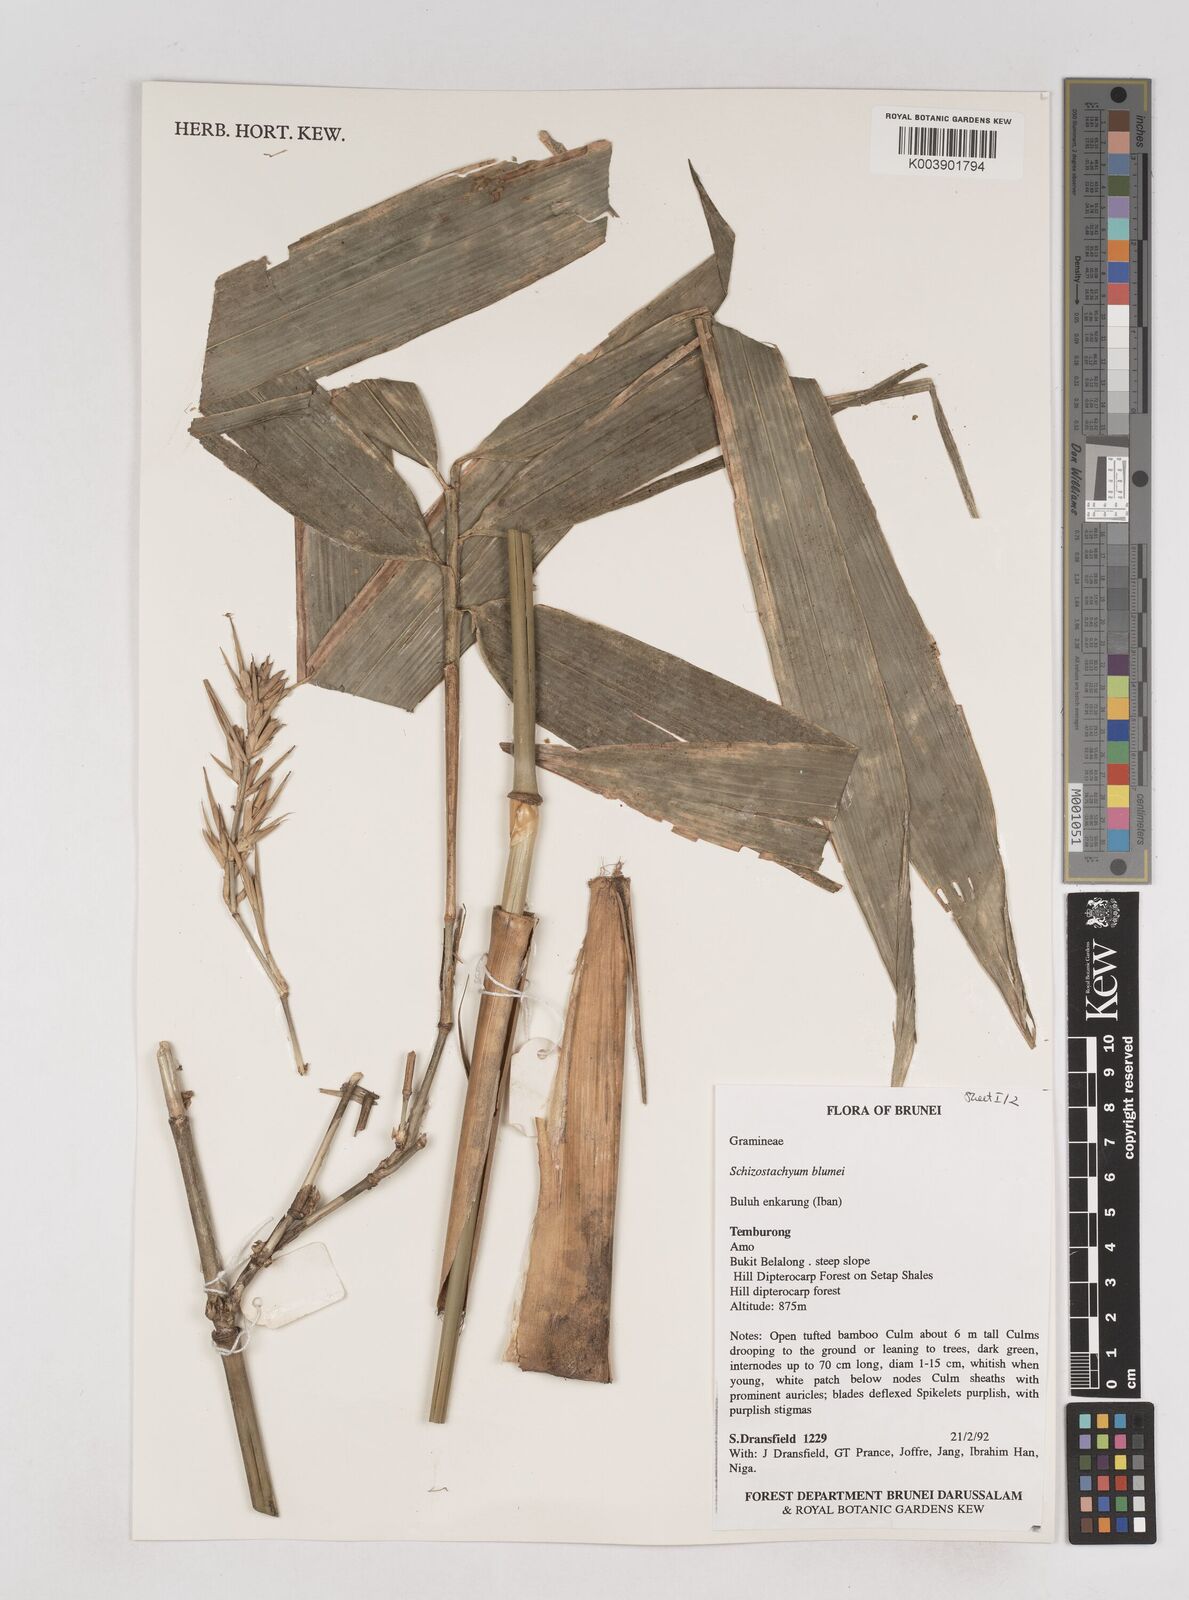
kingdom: Plantae
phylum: Tracheophyta
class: Liliopsida
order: Poales
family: Poaceae
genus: Schizostachyum
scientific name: Schizostachyum blumei
